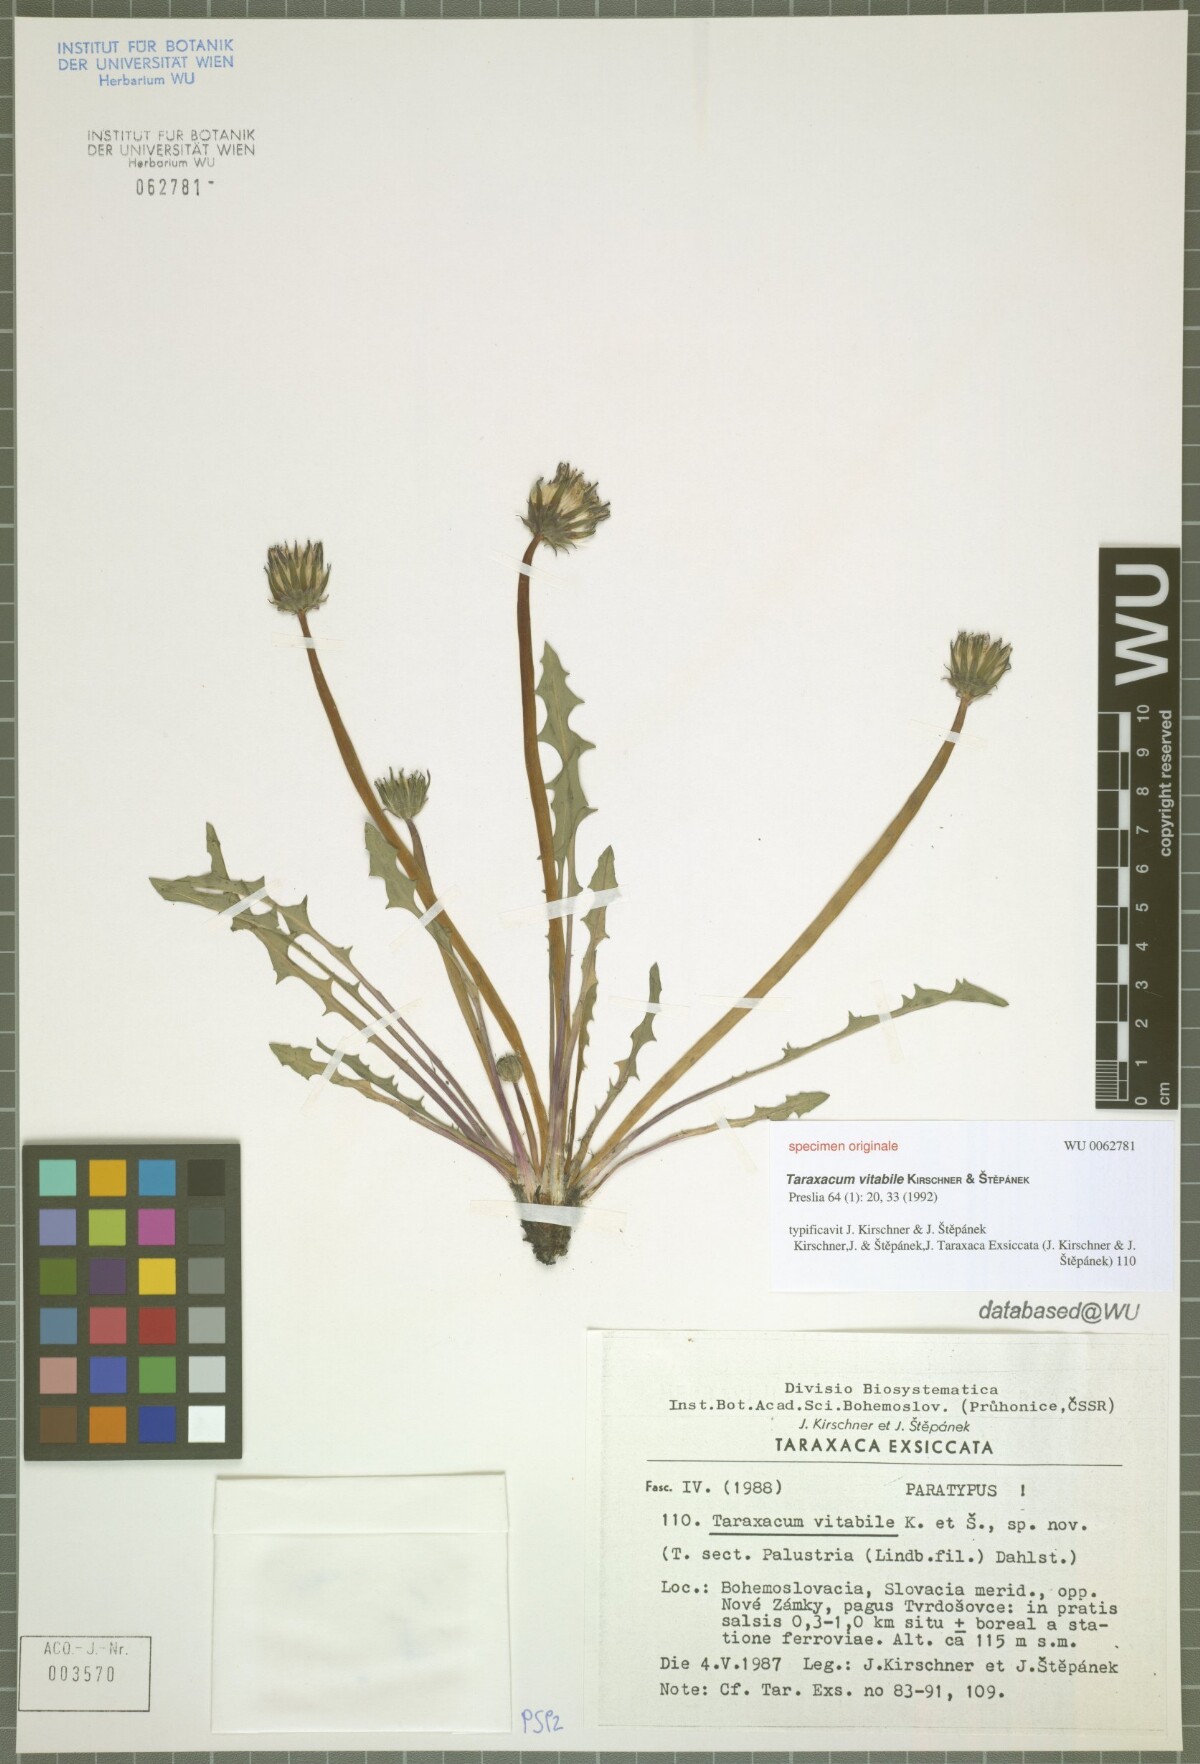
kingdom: Plantae
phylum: Tracheophyta
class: Magnoliopsida
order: Asterales
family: Asteraceae
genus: Taraxacum
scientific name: Taraxacum vindobonense
